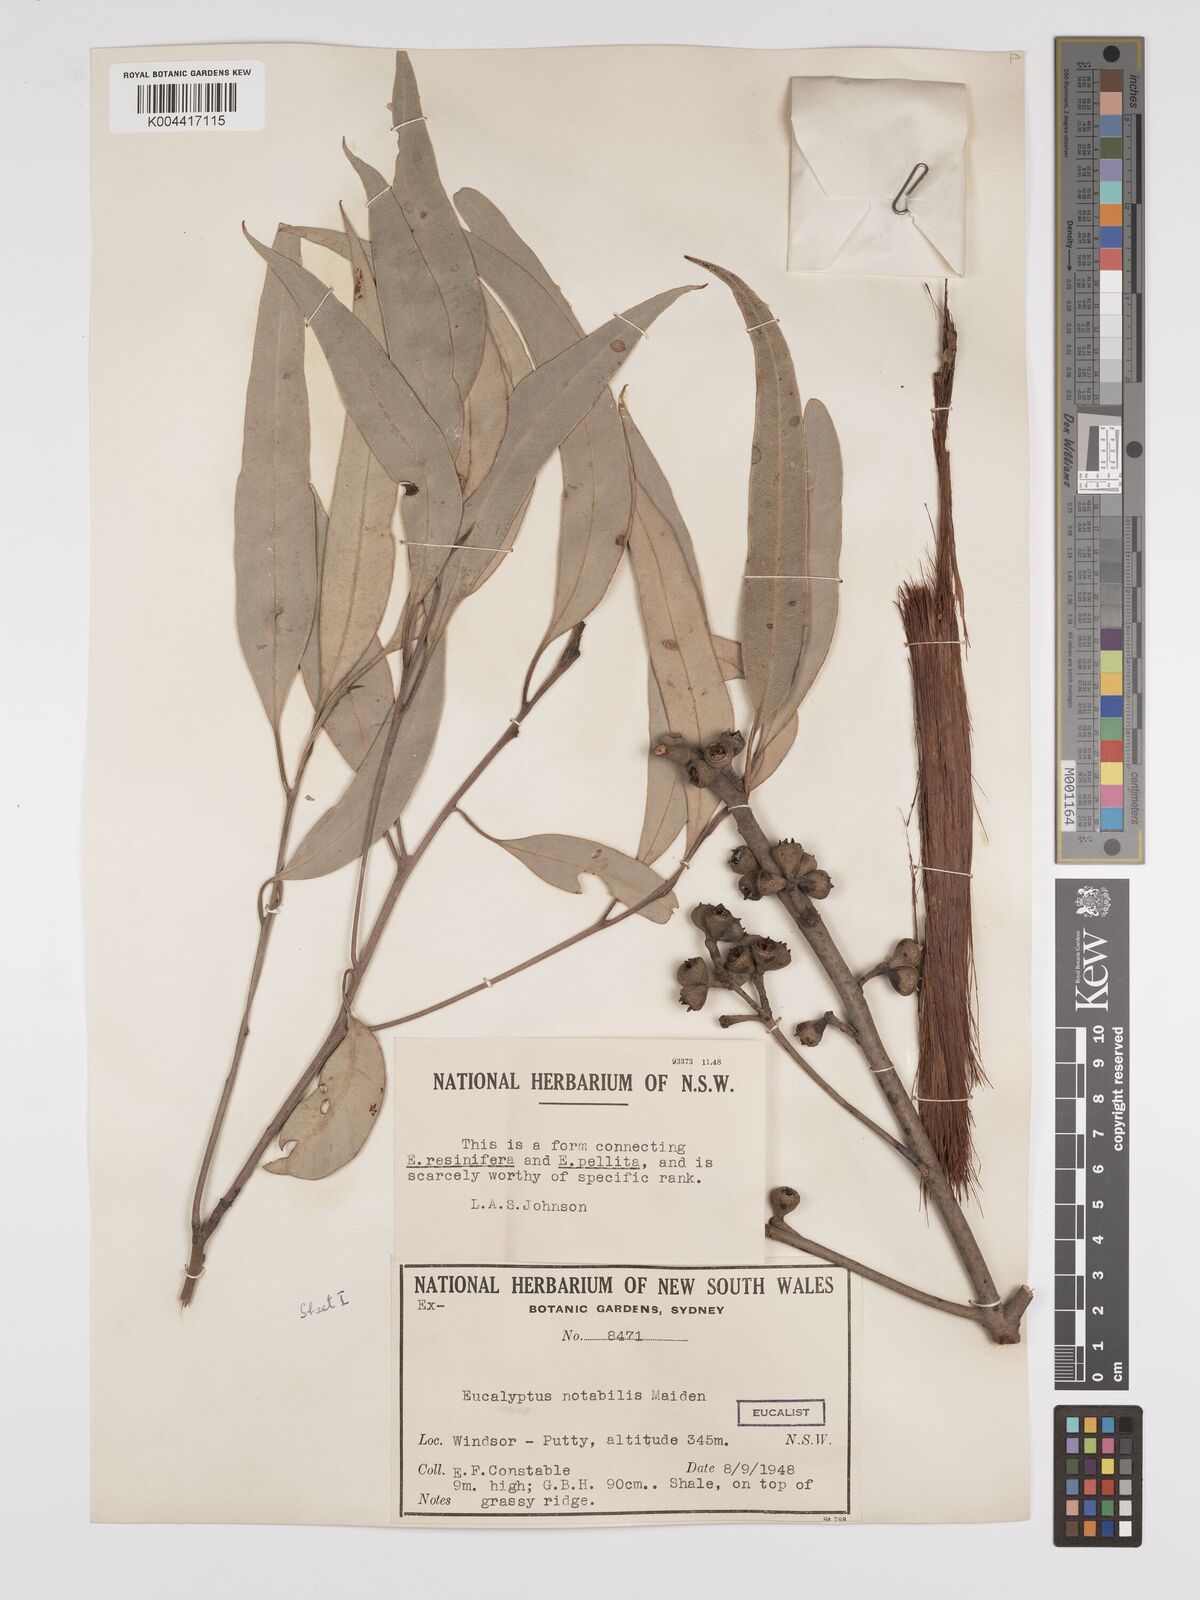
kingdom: Plantae
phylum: Tracheophyta
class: Magnoliopsida
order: Myrtales
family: Myrtaceae
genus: Eucalyptus
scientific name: Eucalyptus notabilis
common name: Blue mountains-mahogany
